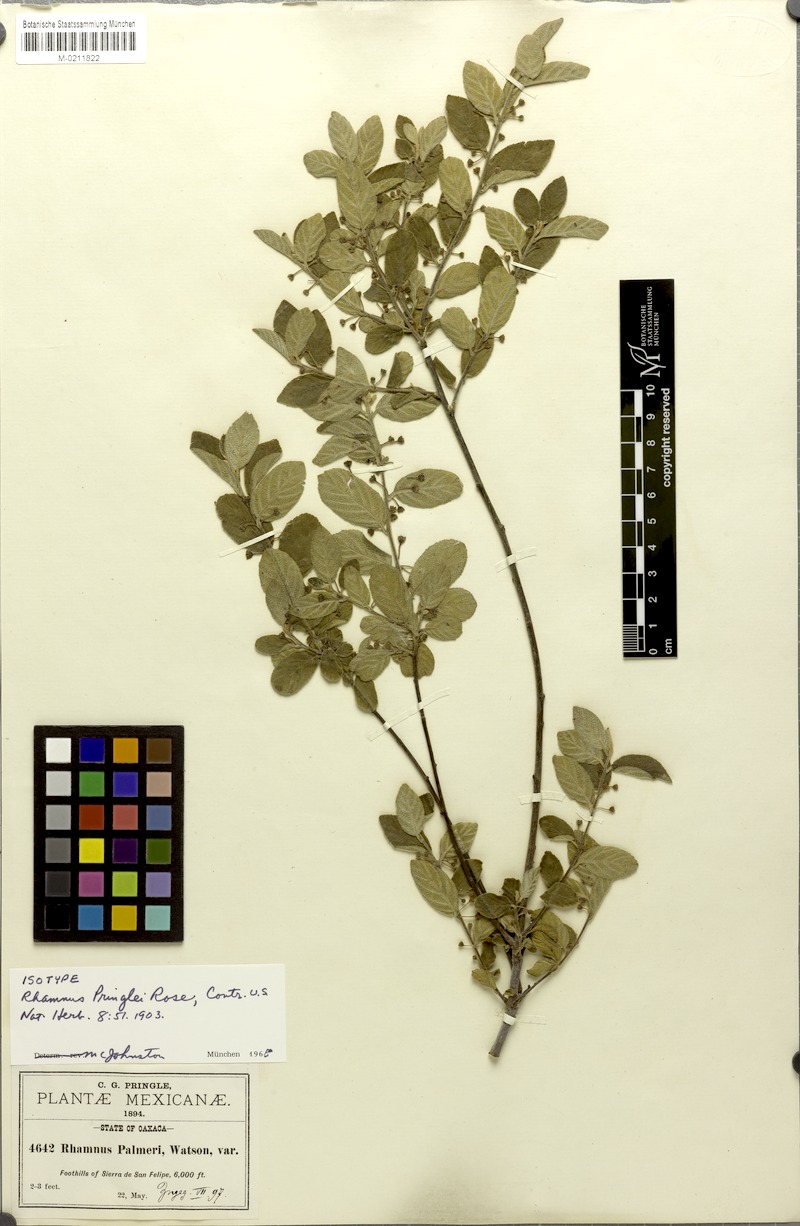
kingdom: Plantae
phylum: Tracheophyta
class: Magnoliopsida
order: Rosales
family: Rhamnaceae
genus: Frangula
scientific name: Frangula pringlei
